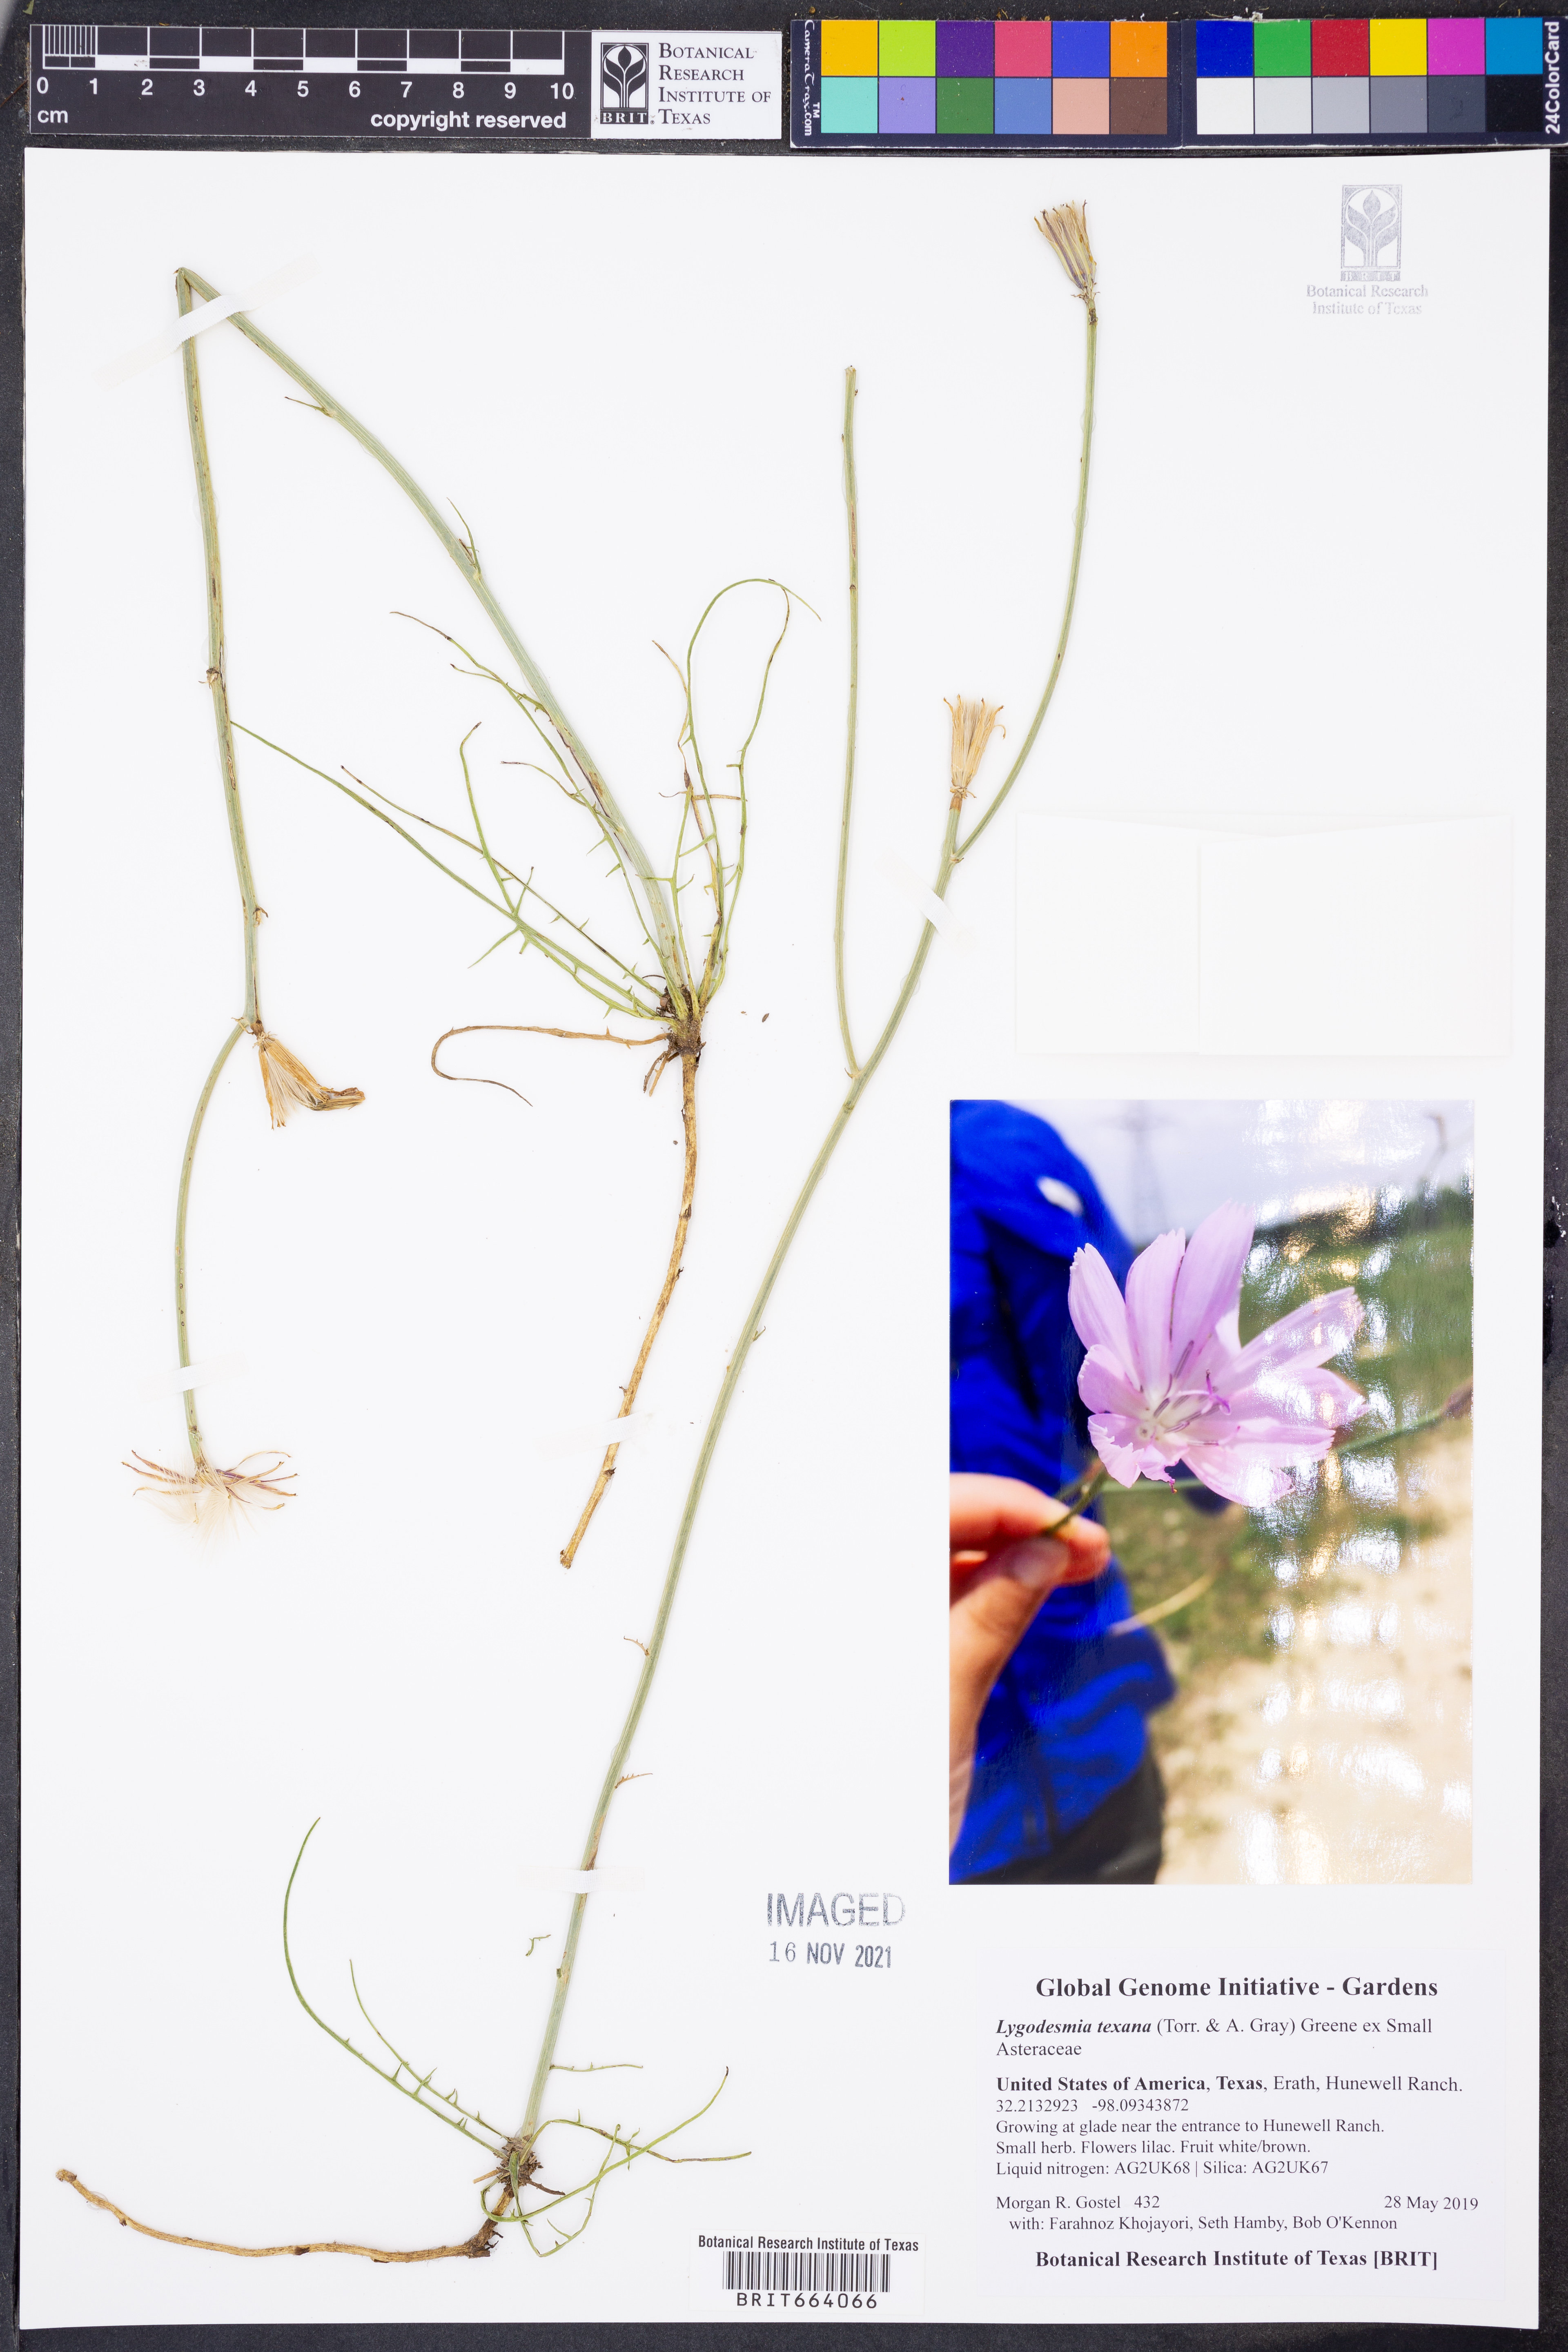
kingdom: Plantae
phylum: Tracheophyta
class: Magnoliopsida
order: Asterales
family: Asteraceae
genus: Lygodesmia
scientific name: Lygodesmia texana
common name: Texas skeleton-plant
